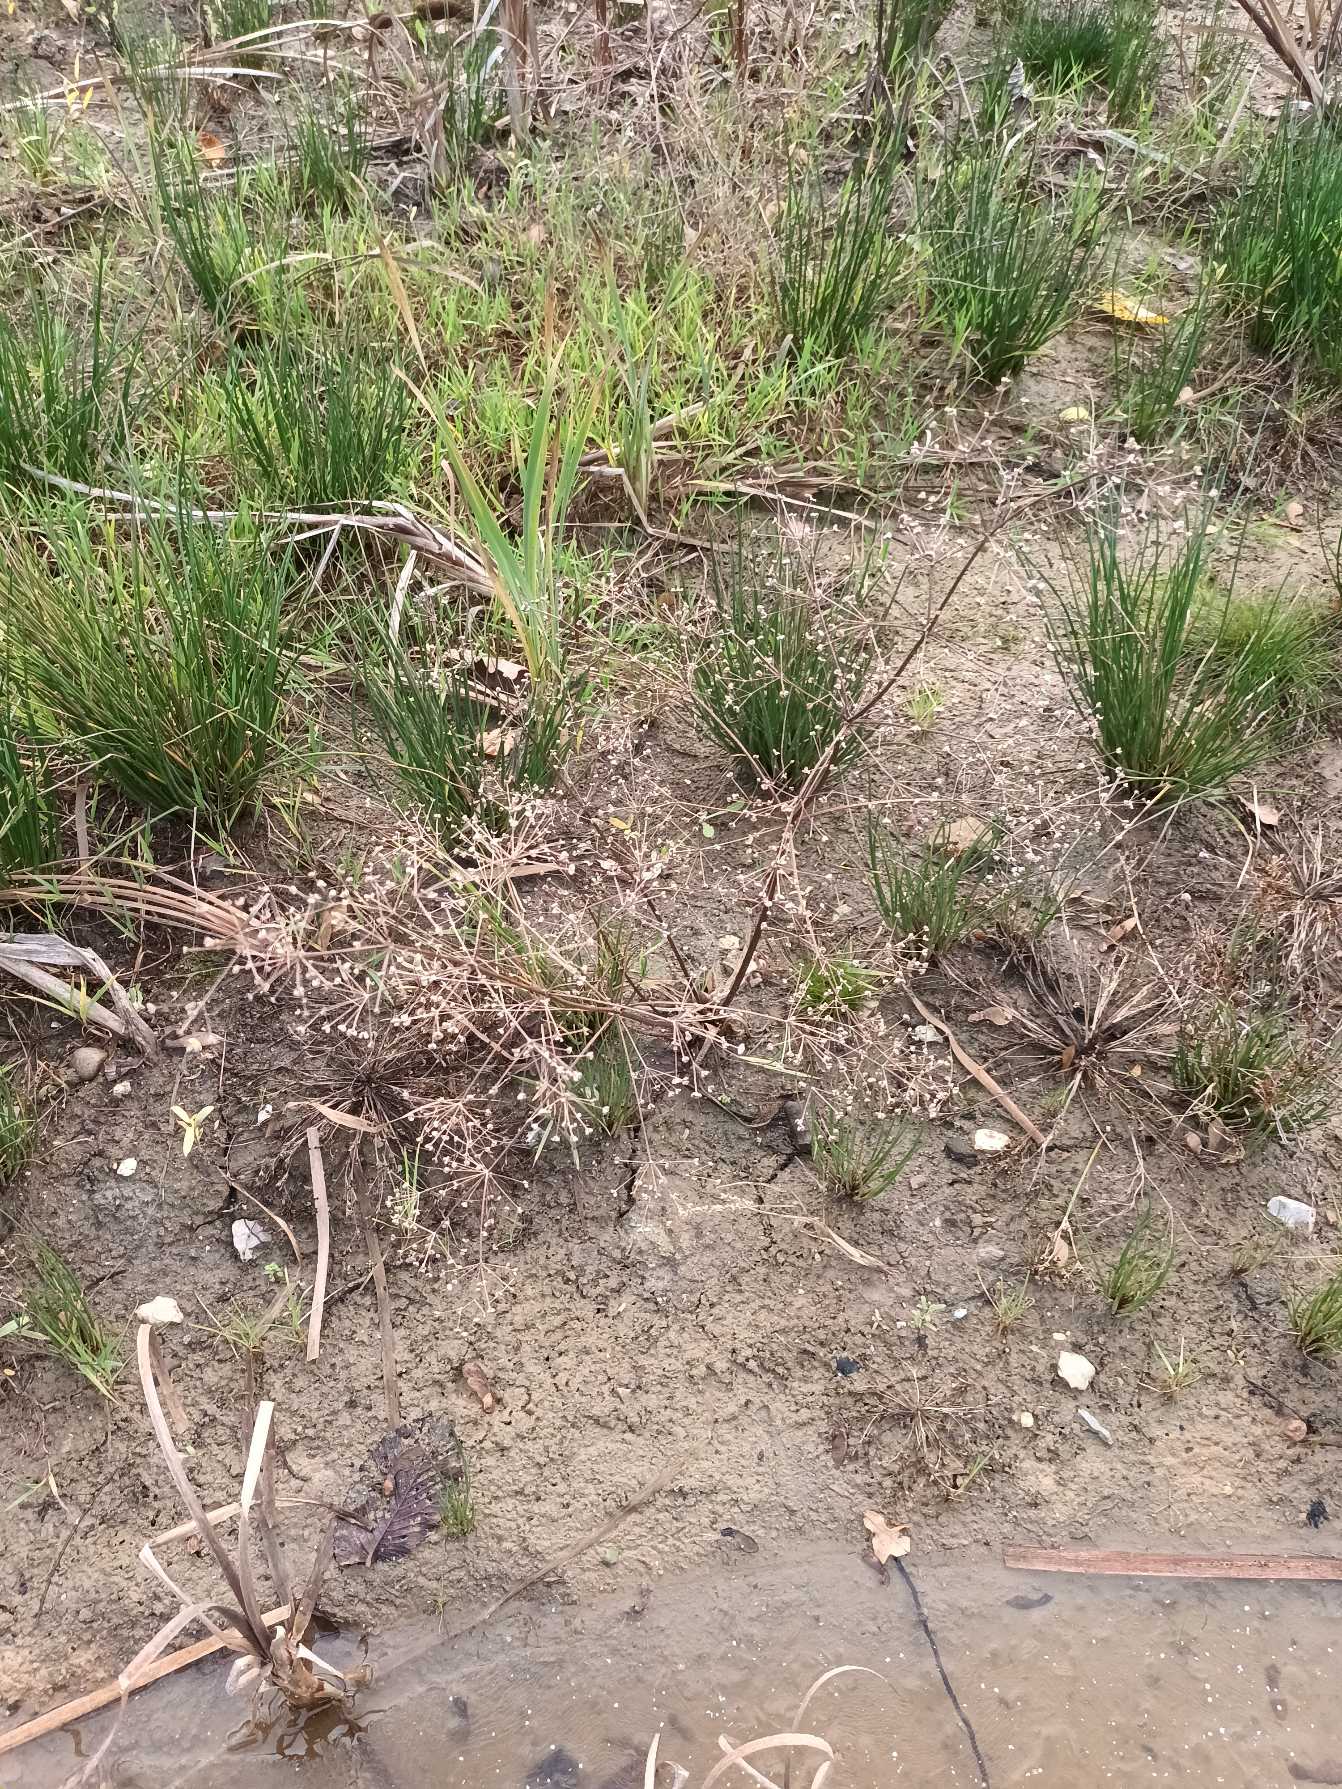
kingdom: Plantae
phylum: Tracheophyta
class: Liliopsida
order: Alismatales
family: Alismataceae
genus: Alisma
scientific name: Alisma plantago-aquatica
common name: Vejbred-skeblad
